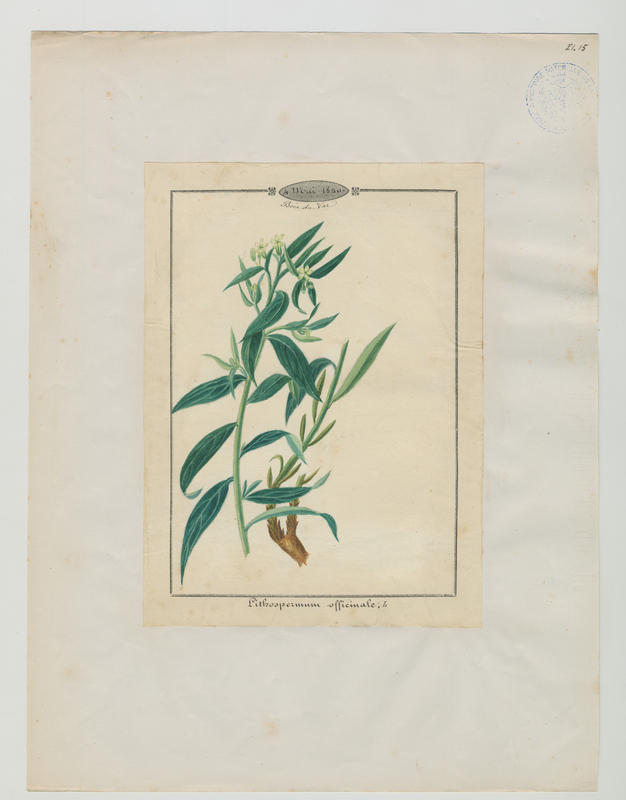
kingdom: Plantae
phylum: Tracheophyta
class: Magnoliopsida
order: Boraginales
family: Boraginaceae
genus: Lithospermum
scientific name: Lithospermum officinale
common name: Common gromwell
